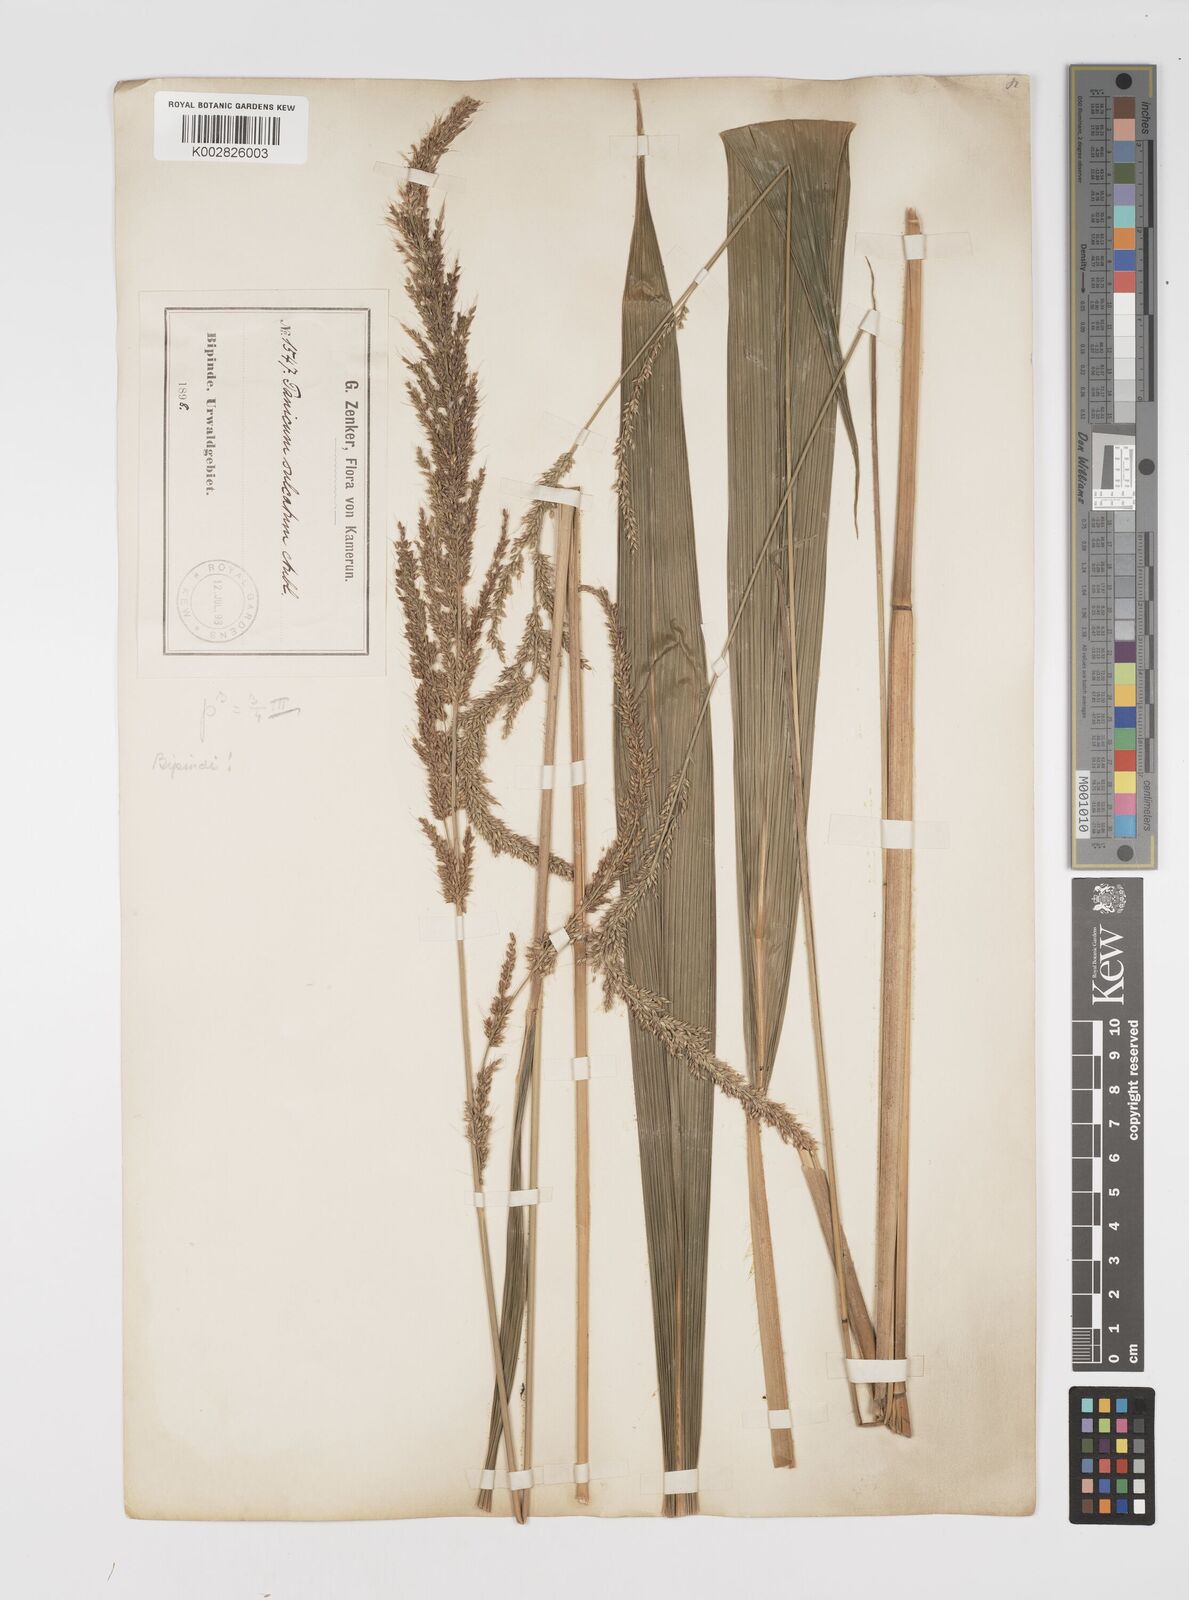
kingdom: Plantae
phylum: Tracheophyta
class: Liliopsida
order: Poales
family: Poaceae
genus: Setaria
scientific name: Setaria megaphylla
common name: Bigleaf bristlegrass
